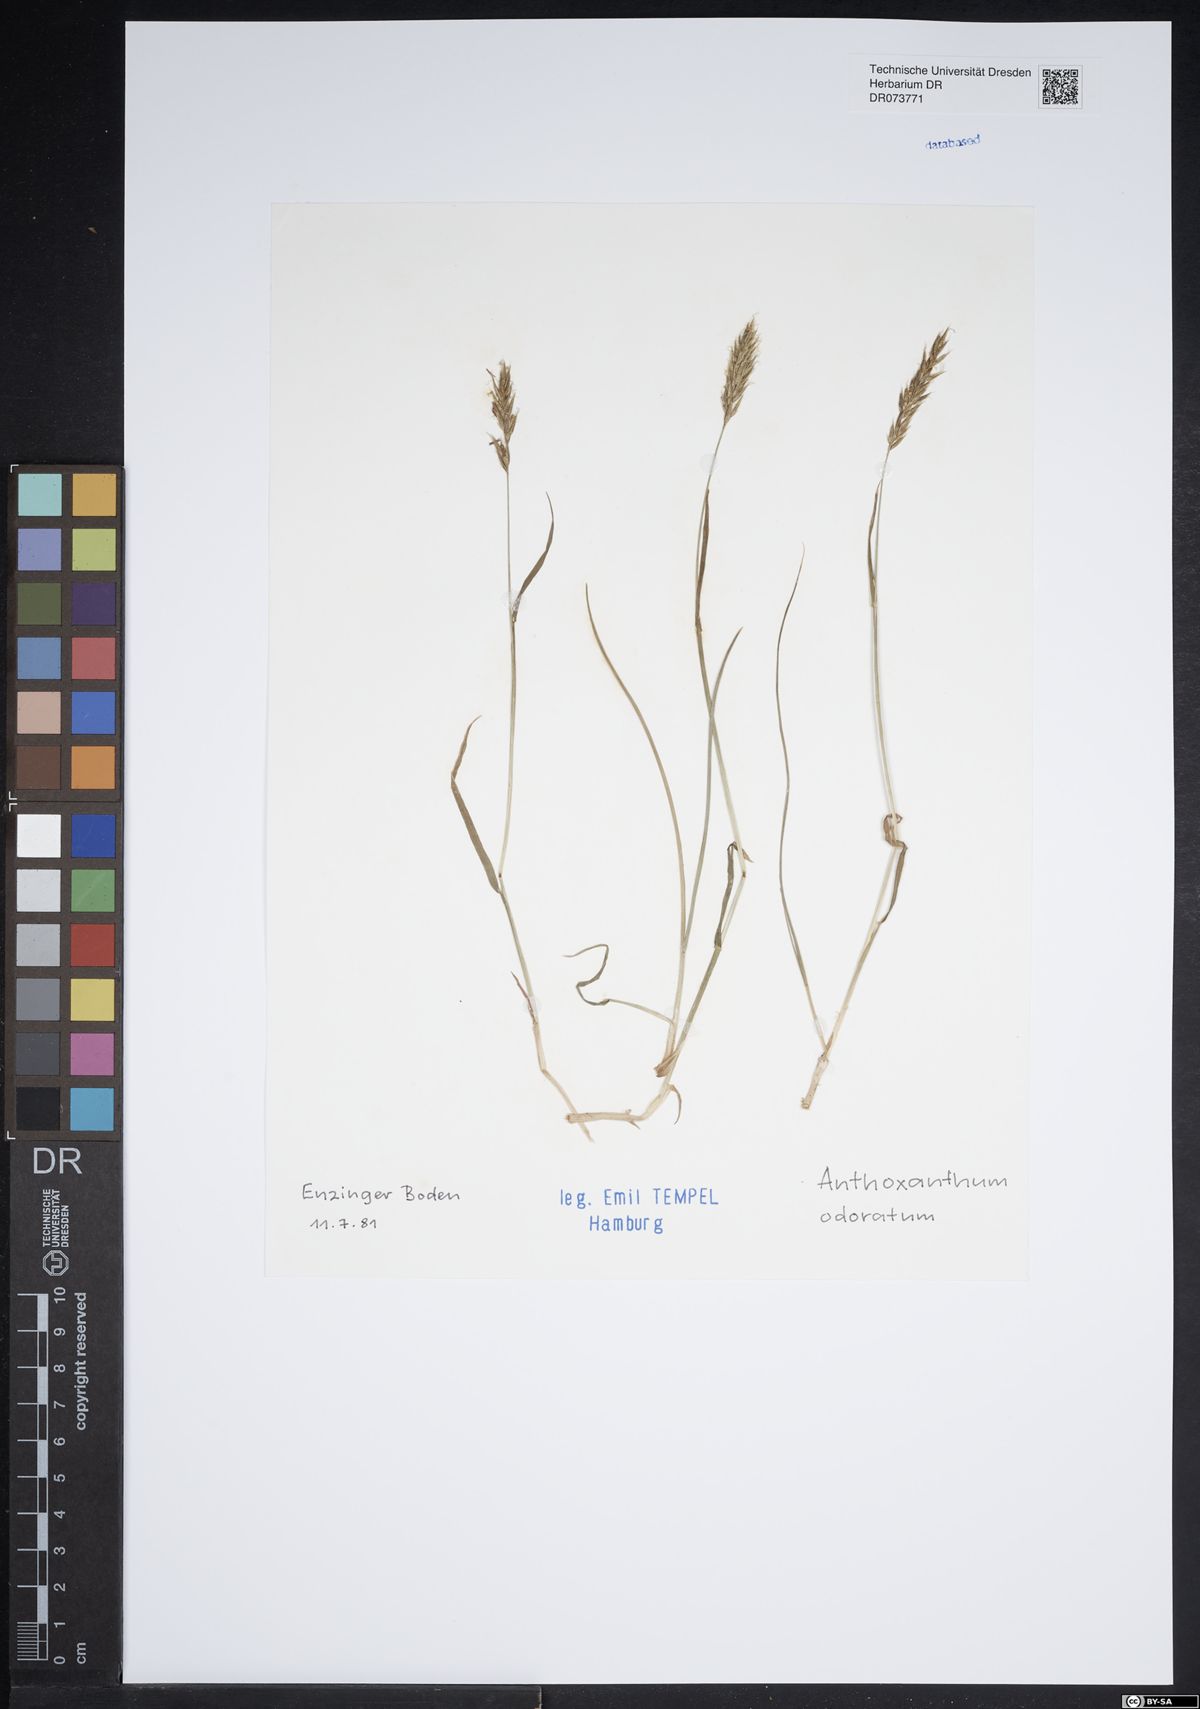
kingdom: Plantae
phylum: Tracheophyta
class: Liliopsida
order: Poales
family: Poaceae
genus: Anthoxanthum
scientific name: Anthoxanthum odoratum
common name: Sweet vernalgrass
